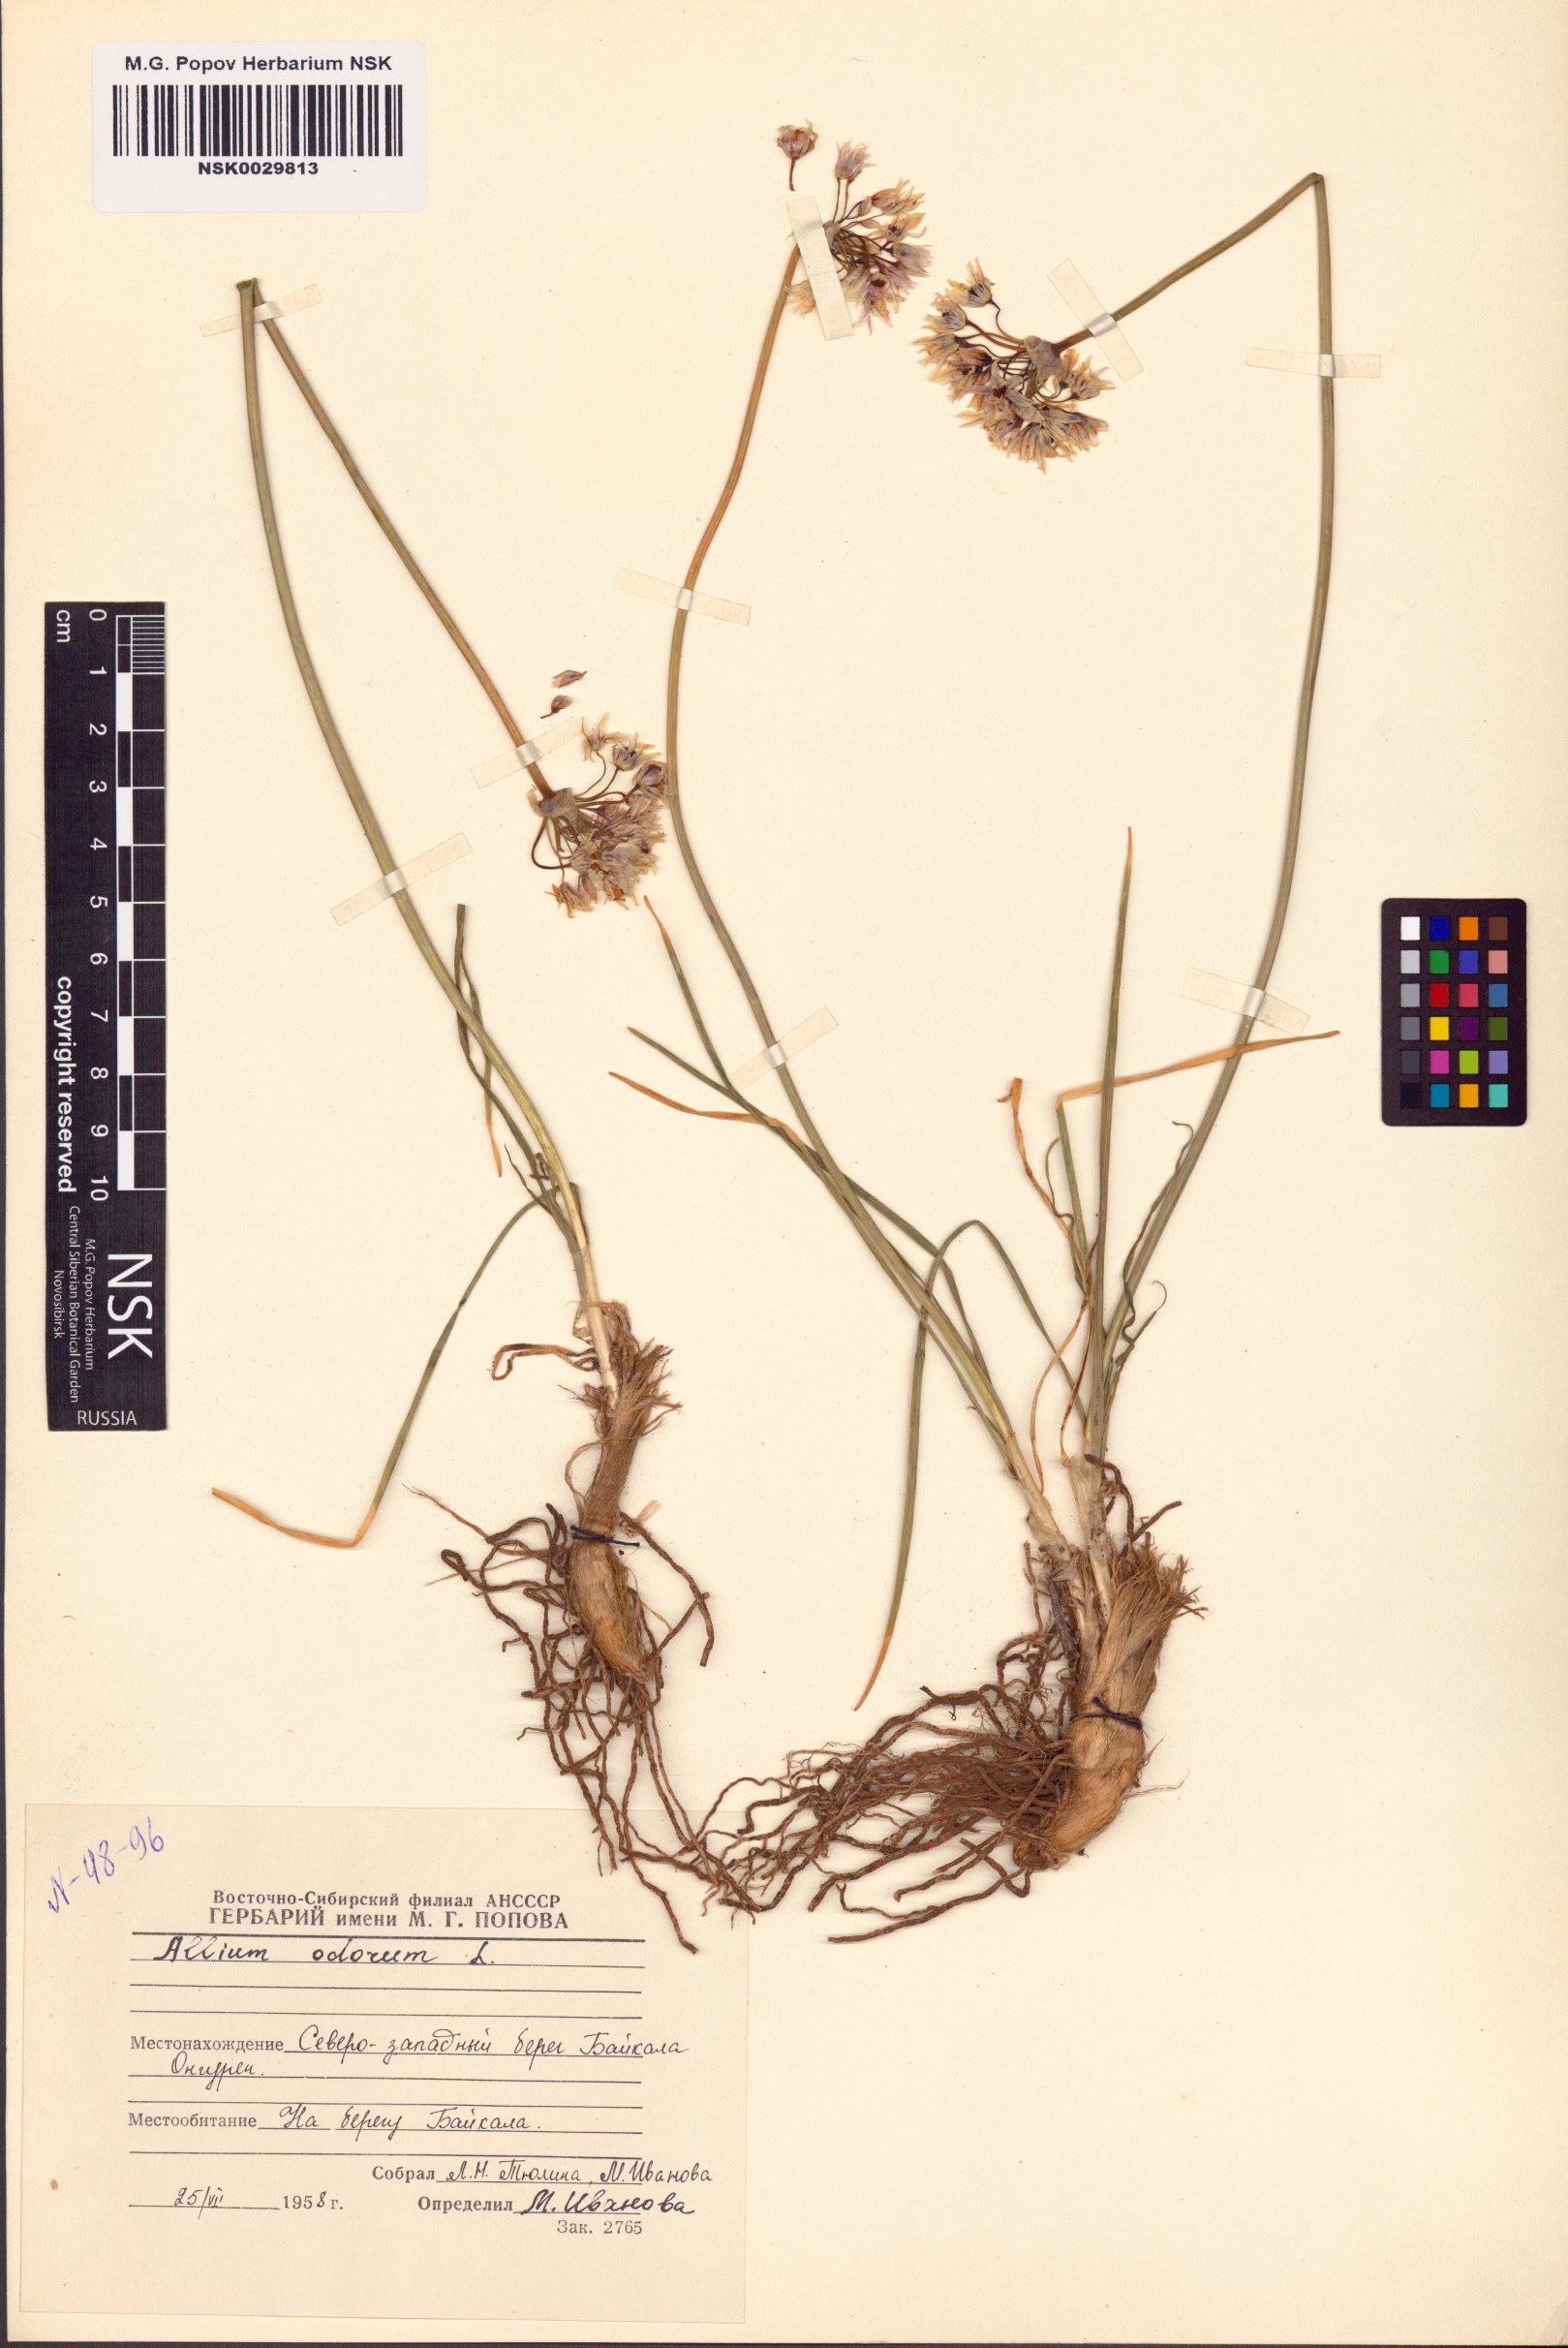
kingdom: Plantae
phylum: Tracheophyta
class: Liliopsida
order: Asparagales
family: Amaryllidaceae
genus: Allium
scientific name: Allium ramosum
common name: Fragrant garlic
